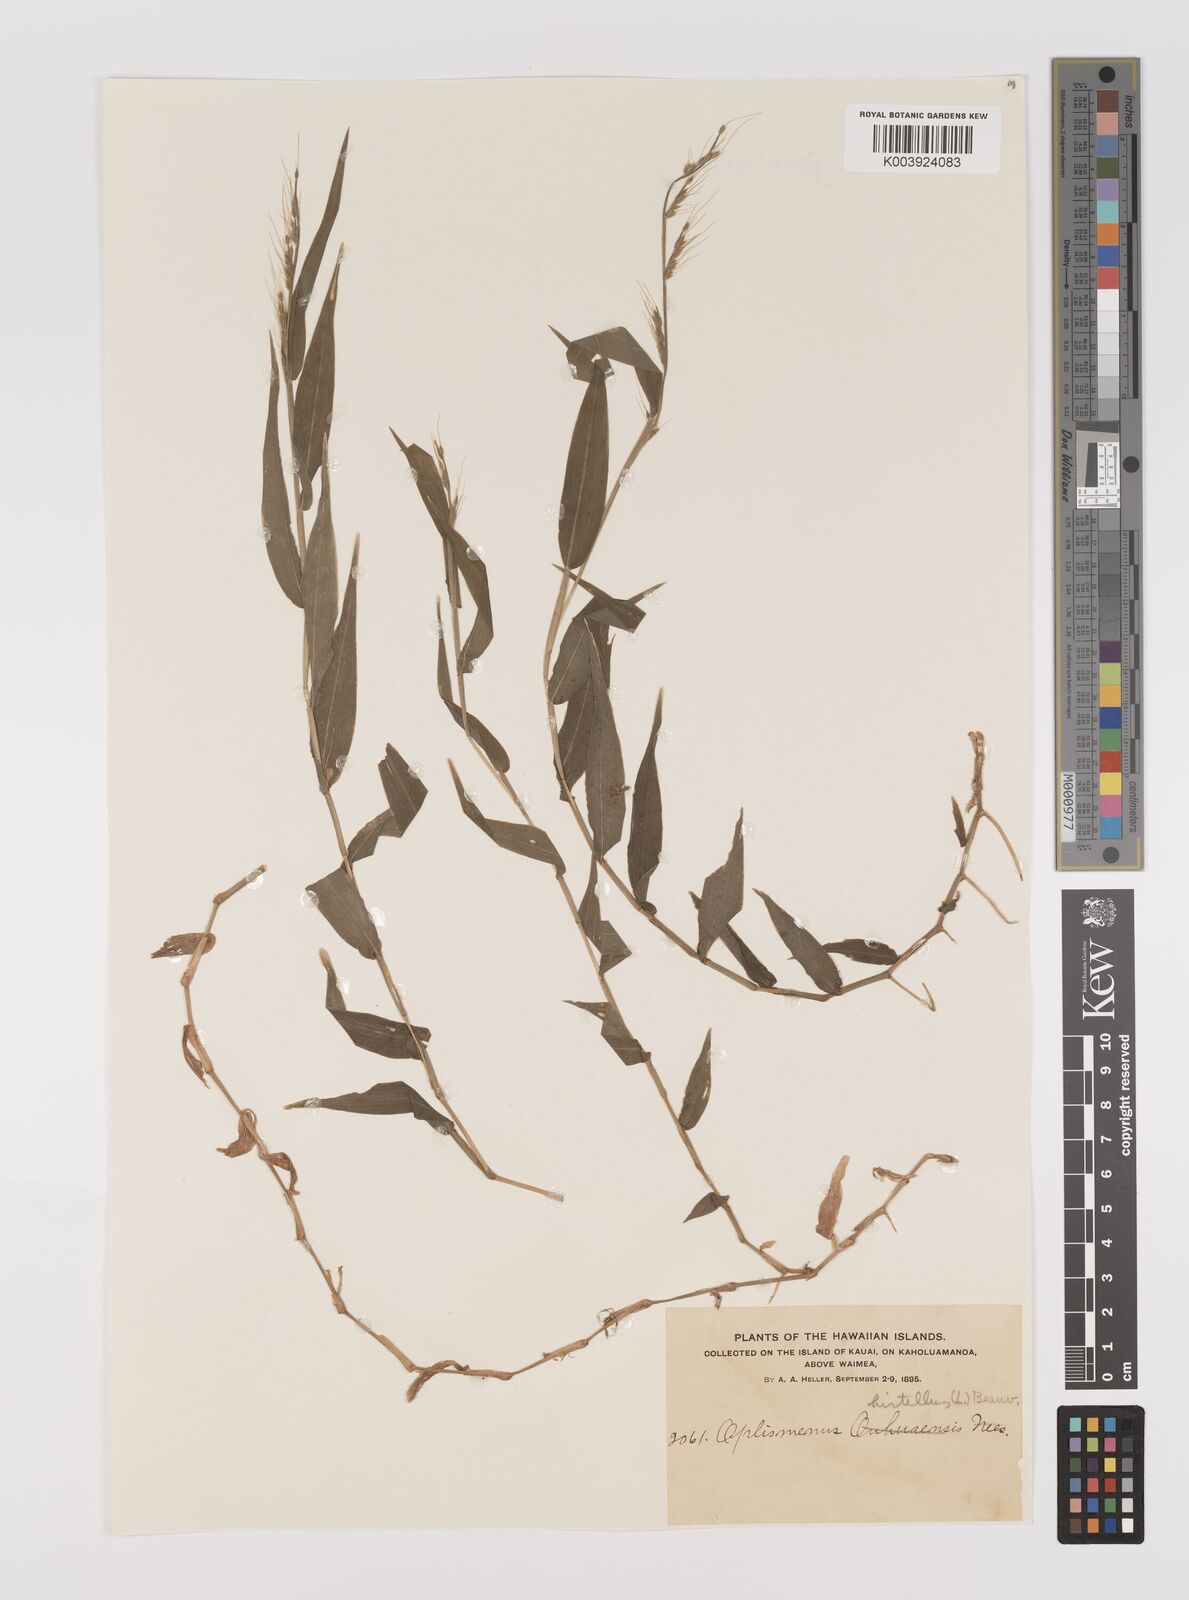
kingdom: Plantae
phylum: Tracheophyta
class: Liliopsida
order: Poales
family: Poaceae
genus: Oplismenus
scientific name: Oplismenus hirtellus
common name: Basketgrass
